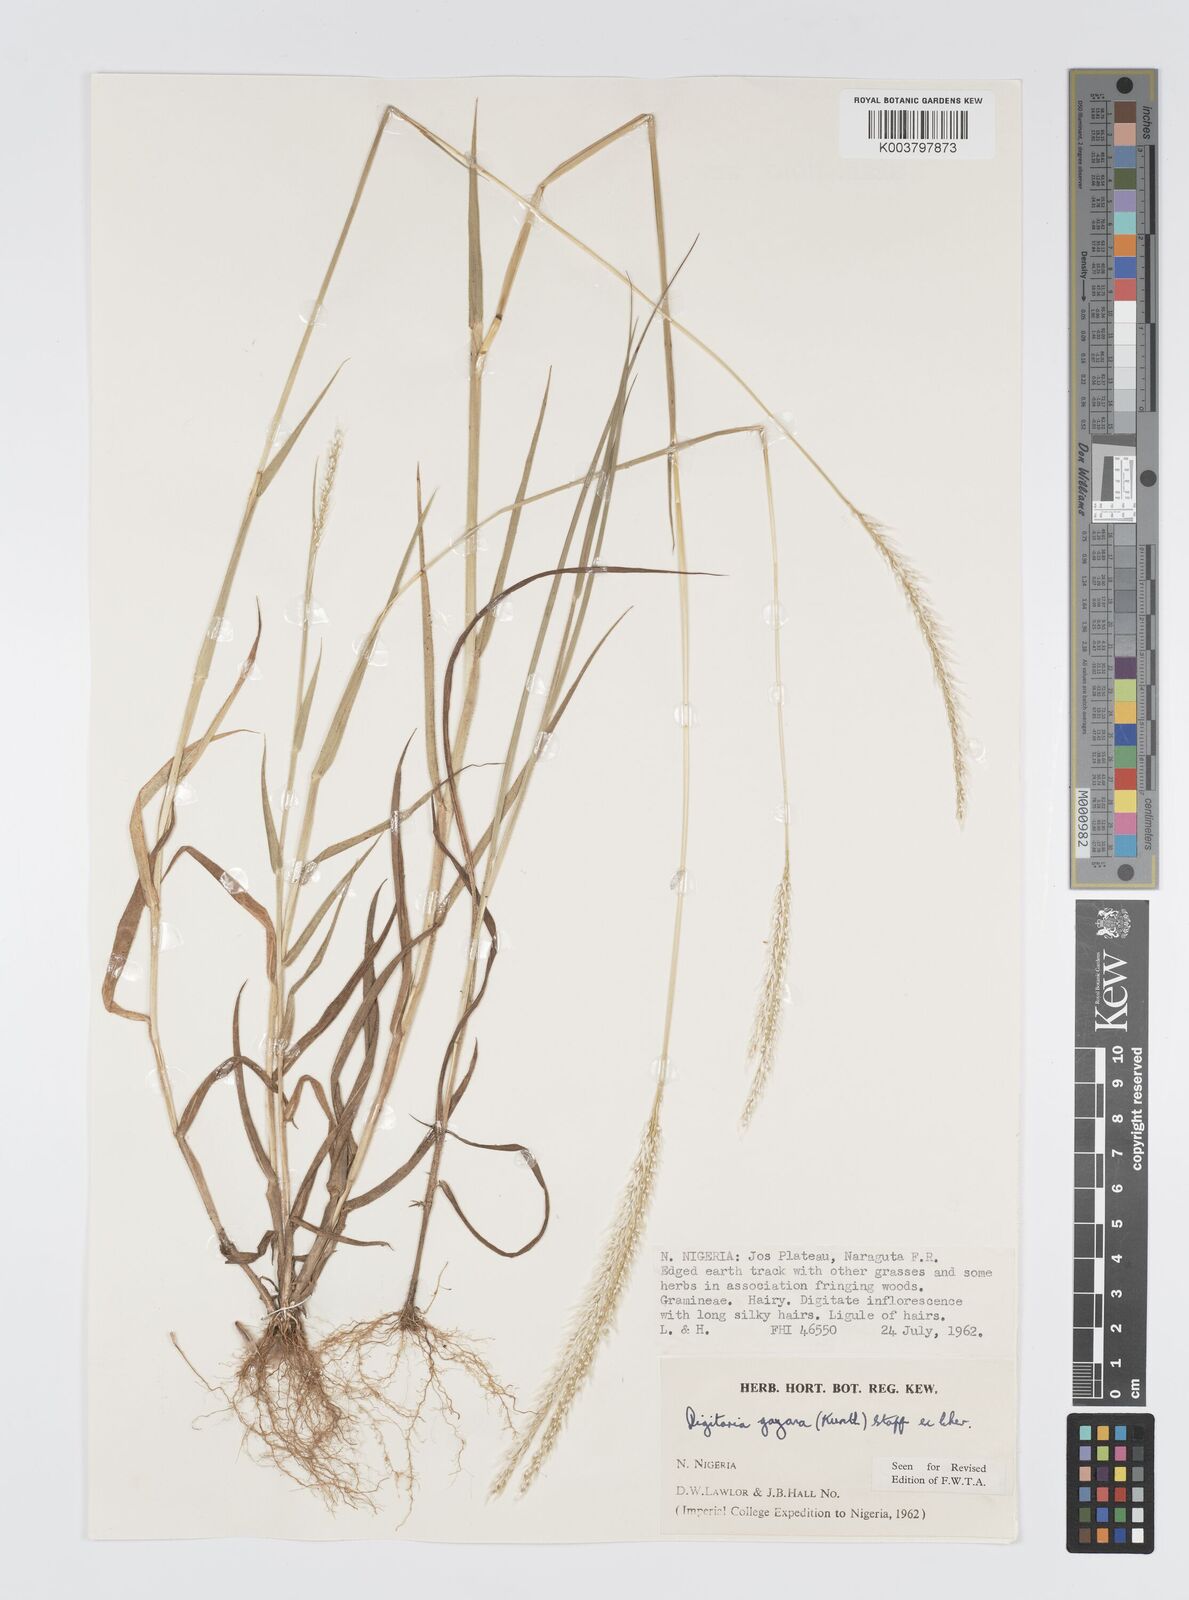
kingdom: Plantae
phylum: Tracheophyta
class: Liliopsida
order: Poales
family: Poaceae
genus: Digitaria
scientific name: Digitaria gayana
